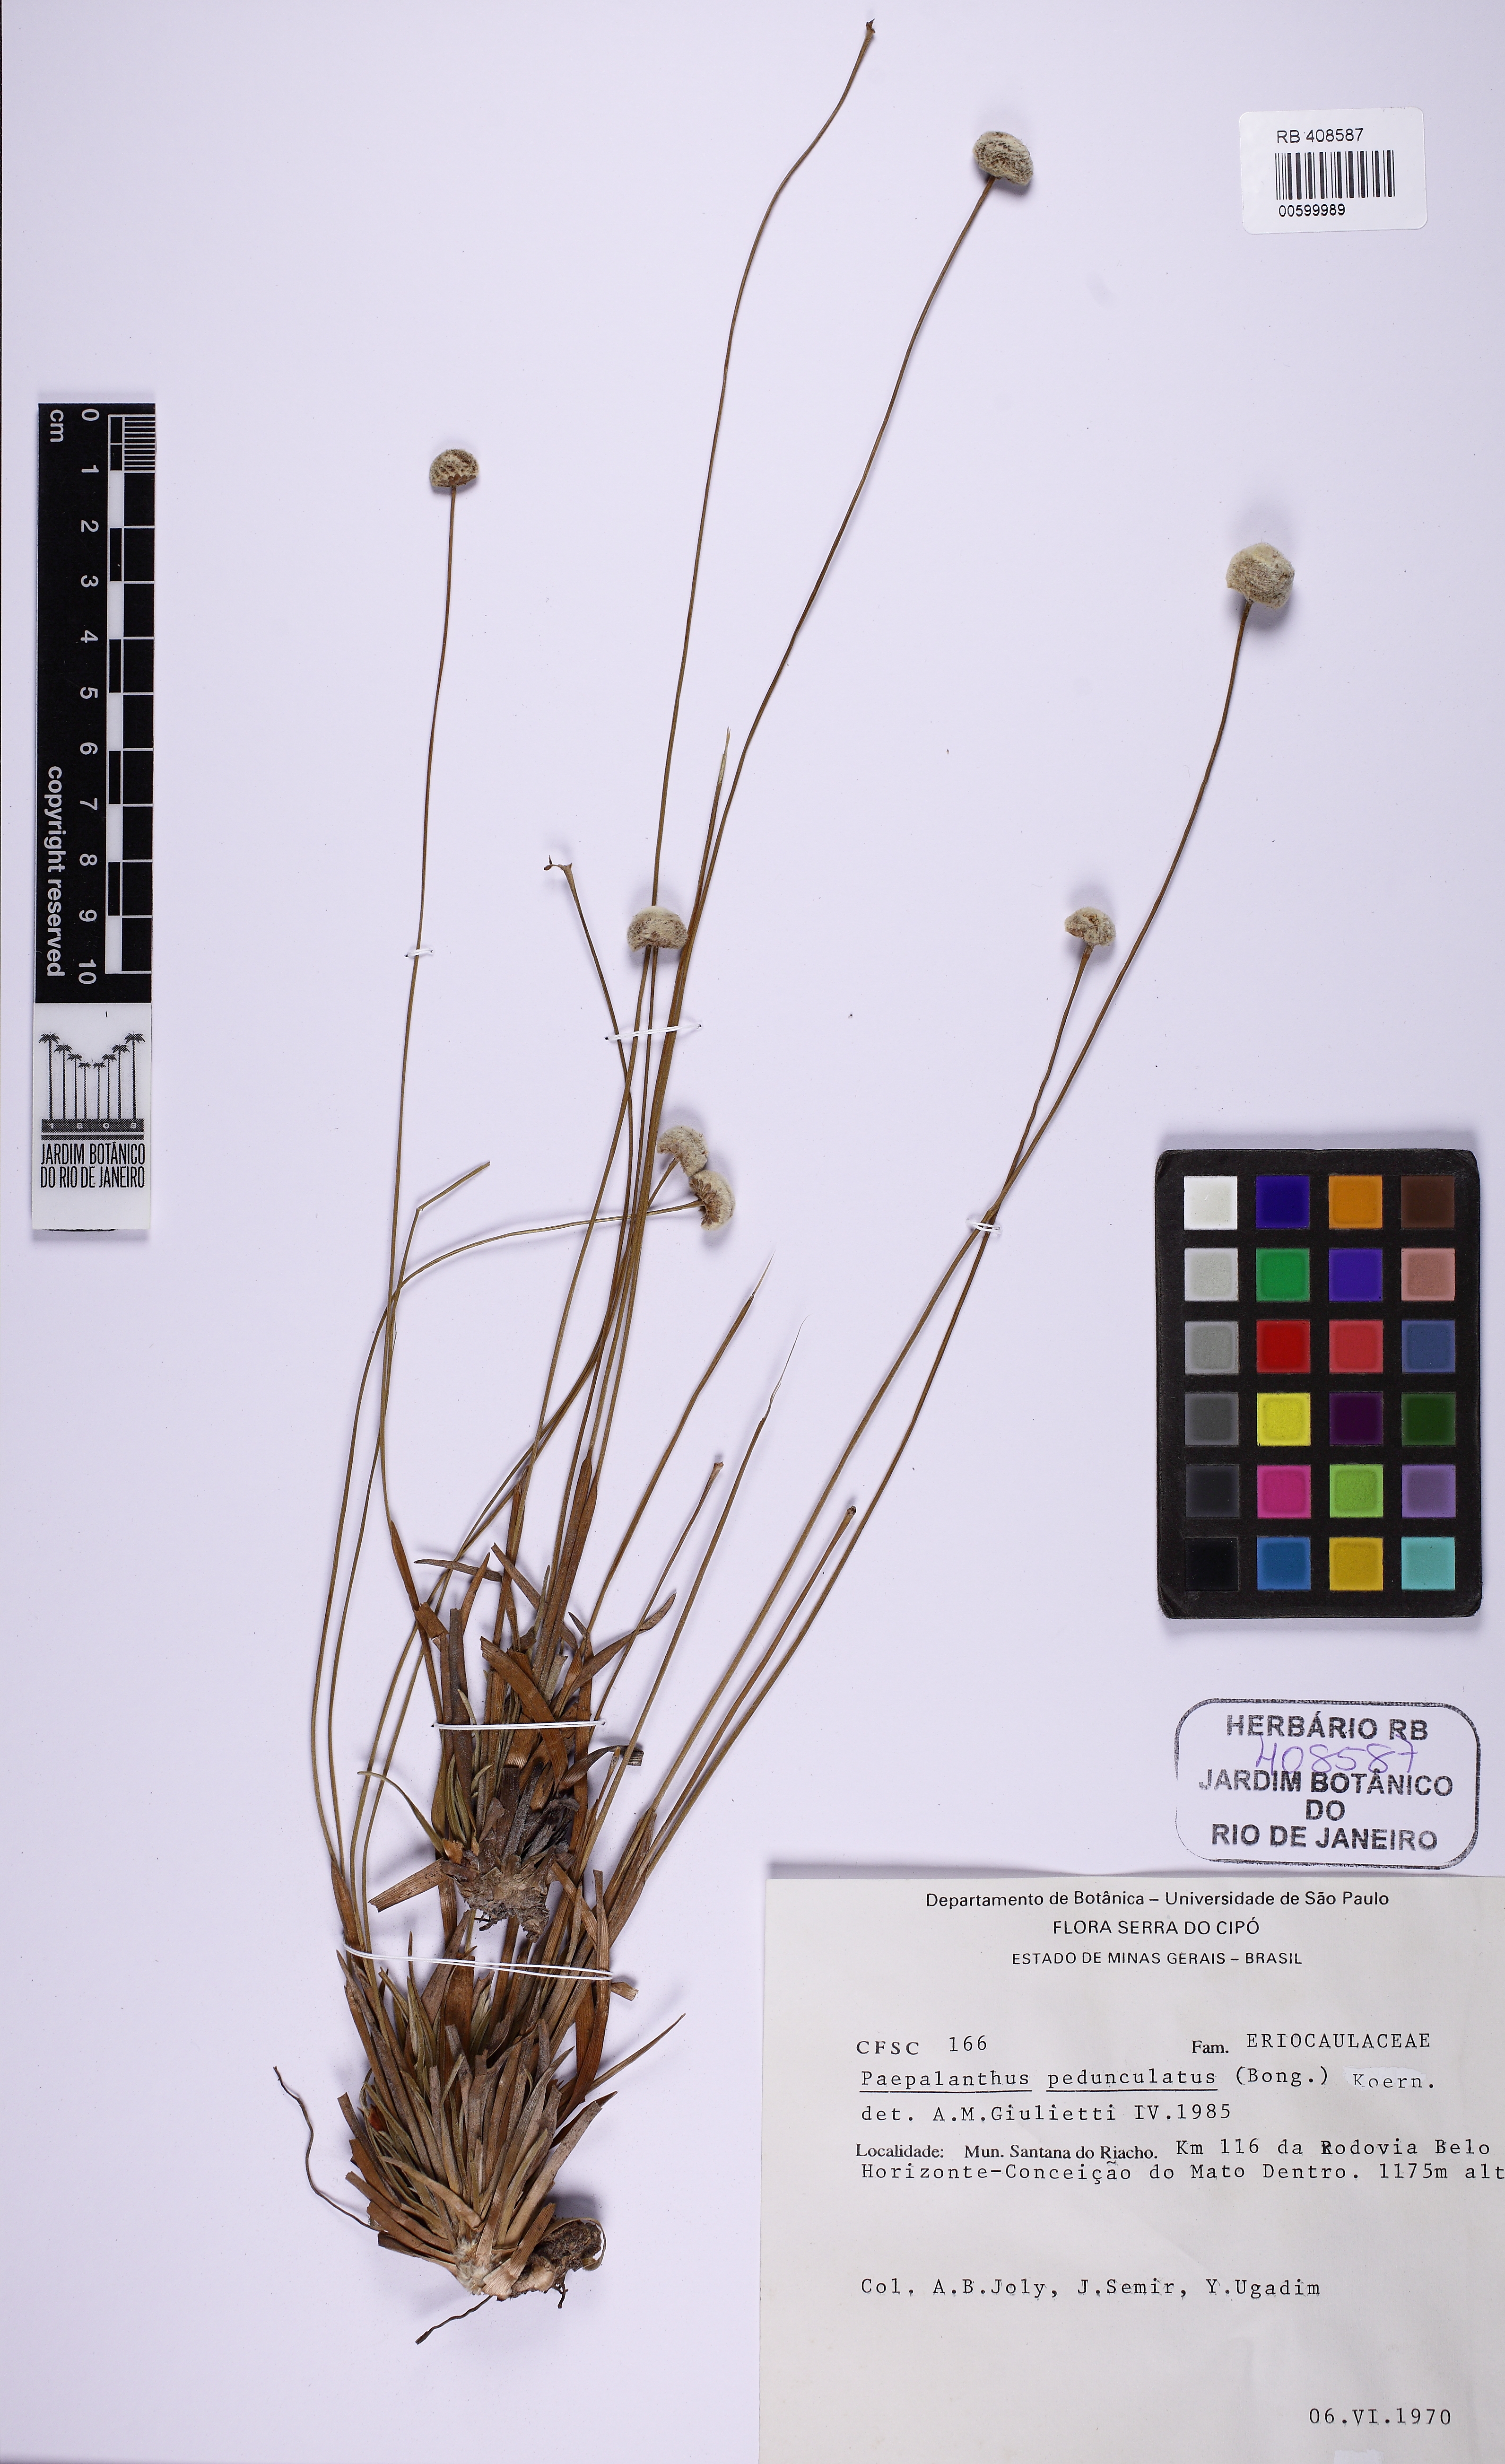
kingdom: Plantae
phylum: Tracheophyta
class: Liliopsida
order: Poales
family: Eriocaulaceae
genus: Paepalanthus
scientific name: Paepalanthus pedunculatus
